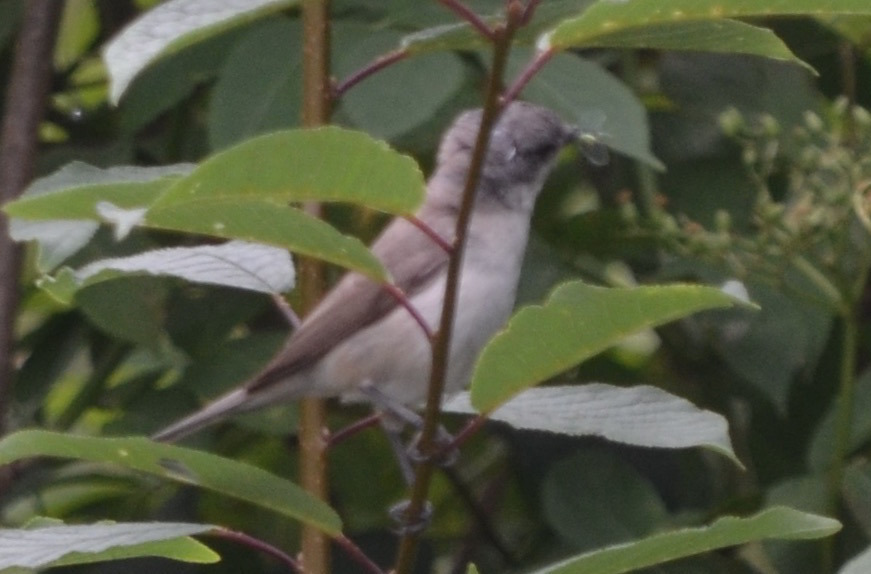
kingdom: Animalia
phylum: Chordata
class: Aves
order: Passeriformes
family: Sylviidae
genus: Sylvia
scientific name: Sylvia curruca
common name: Gærdesanger
